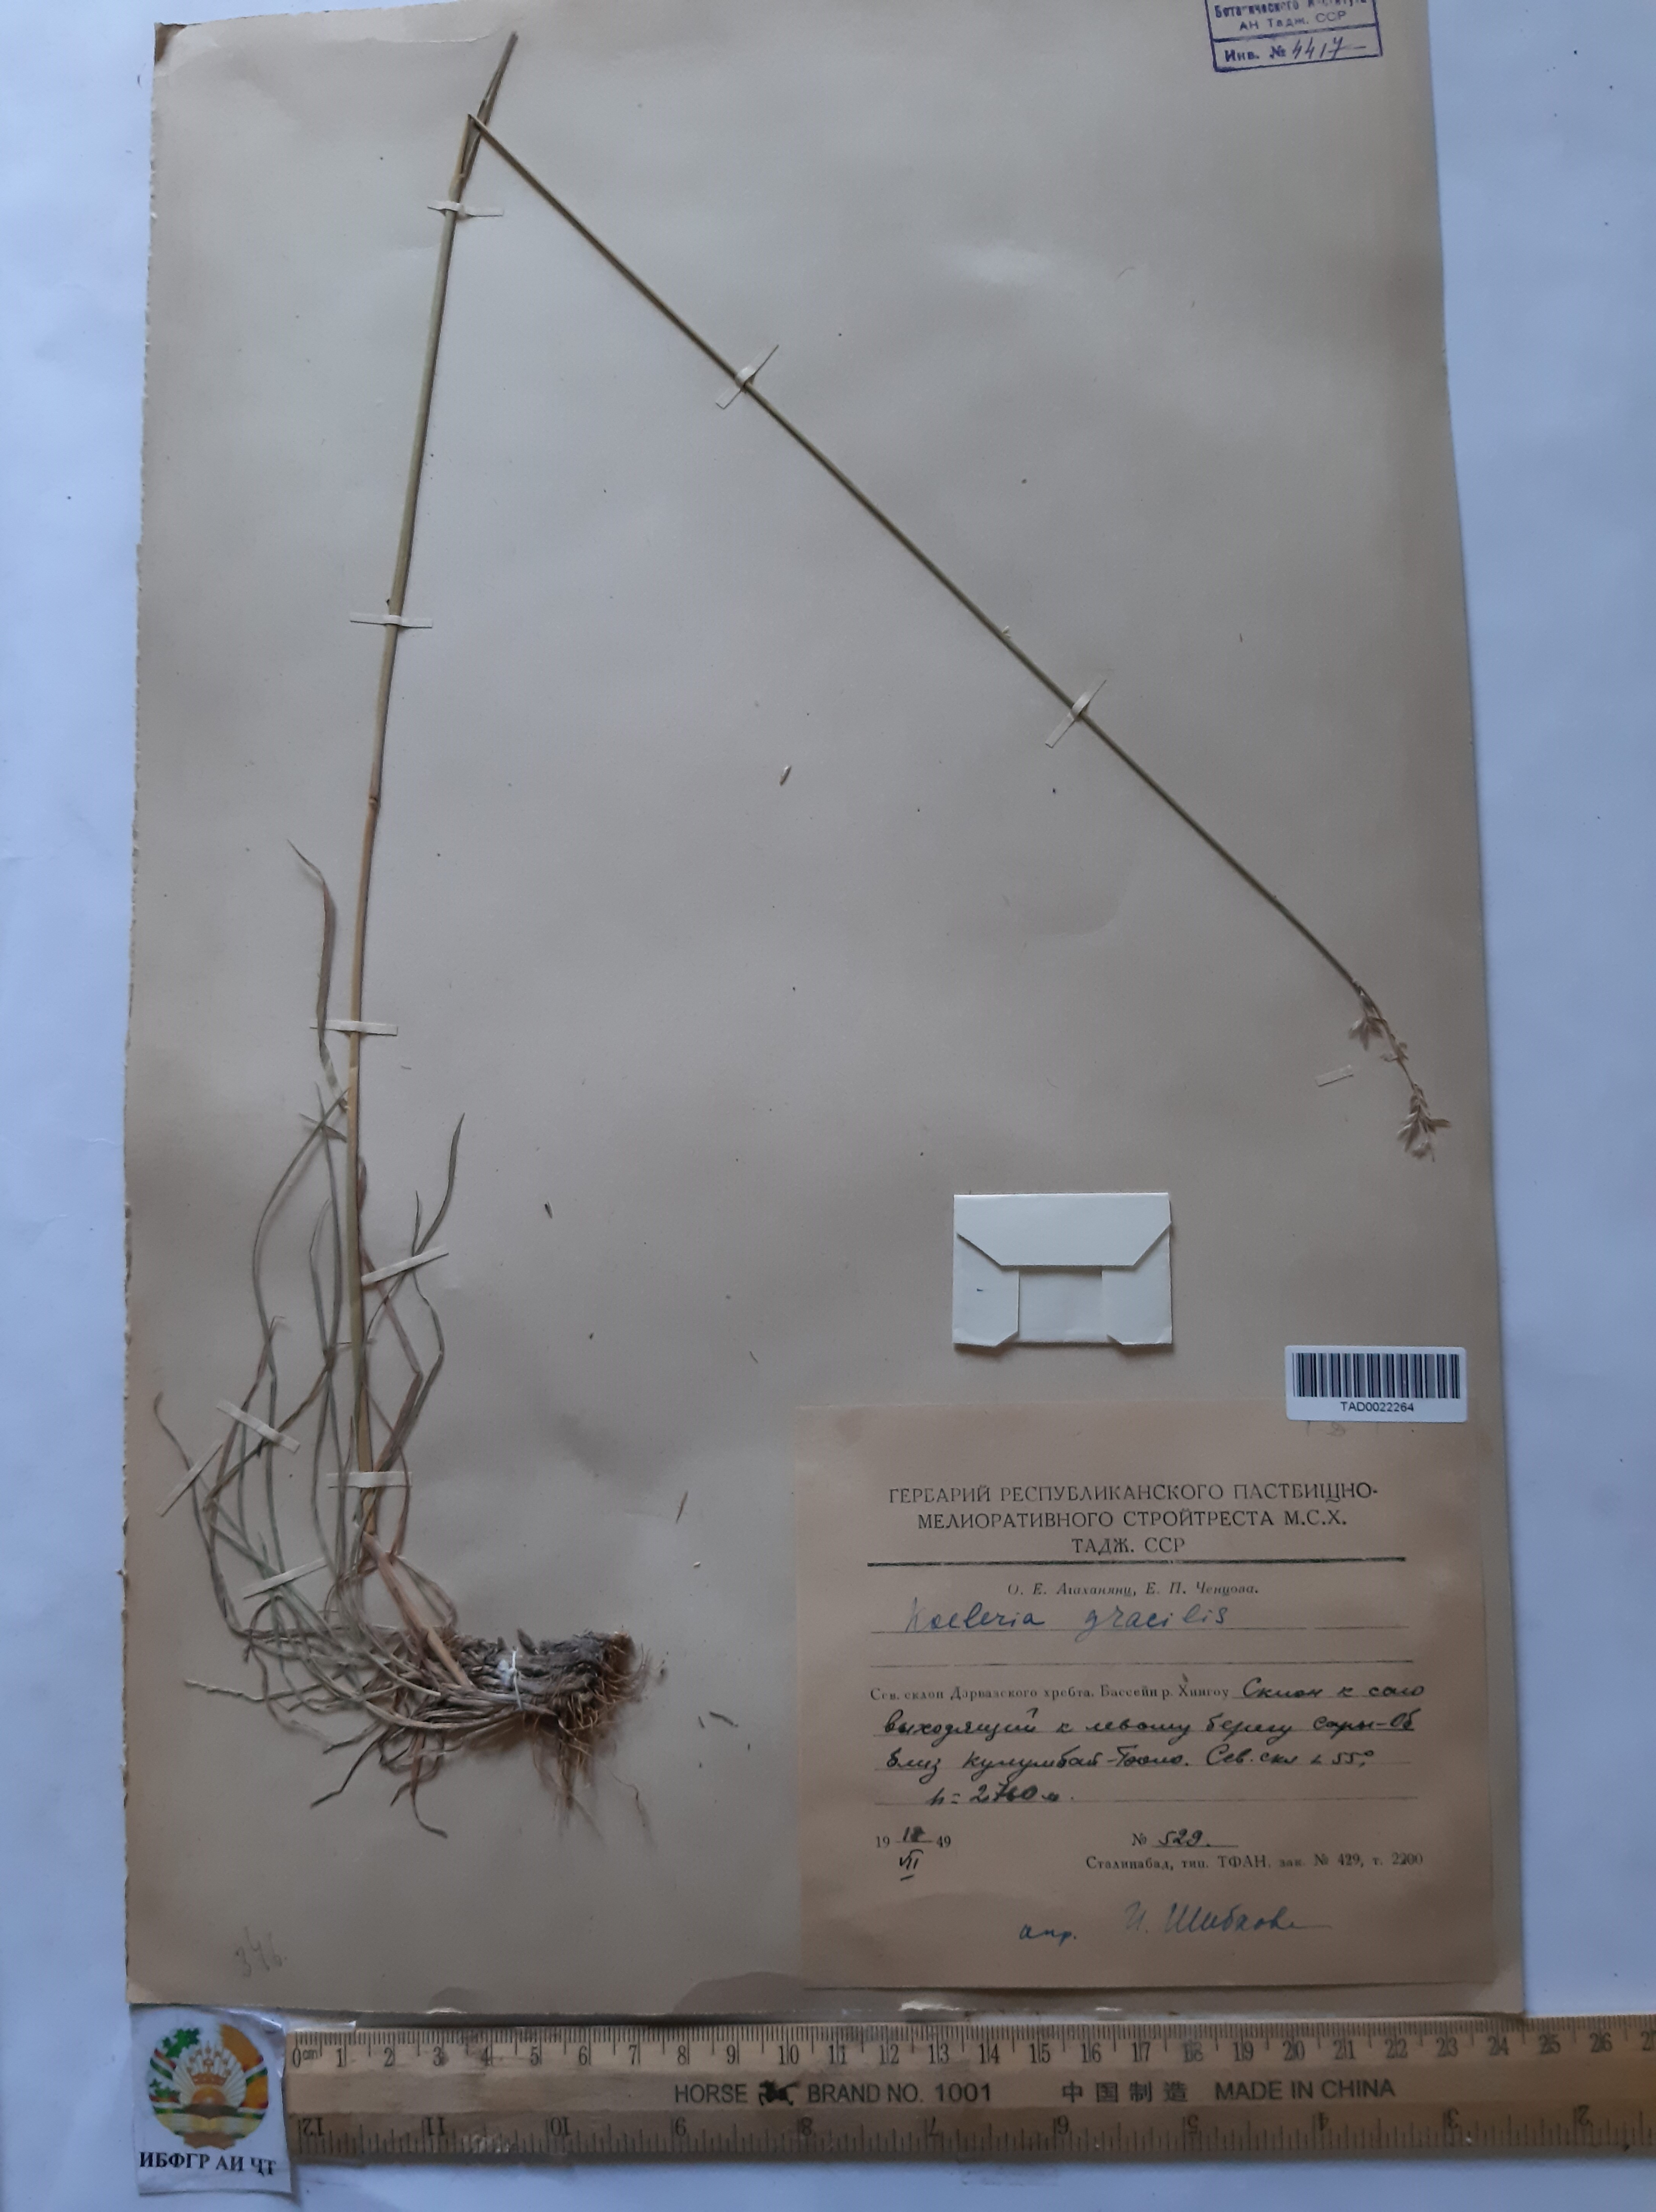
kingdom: Plantae
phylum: Tracheophyta
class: Liliopsida
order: Poales
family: Poaceae
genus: Koeleria
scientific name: Koeleria macrantha
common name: Crested hair-grass
